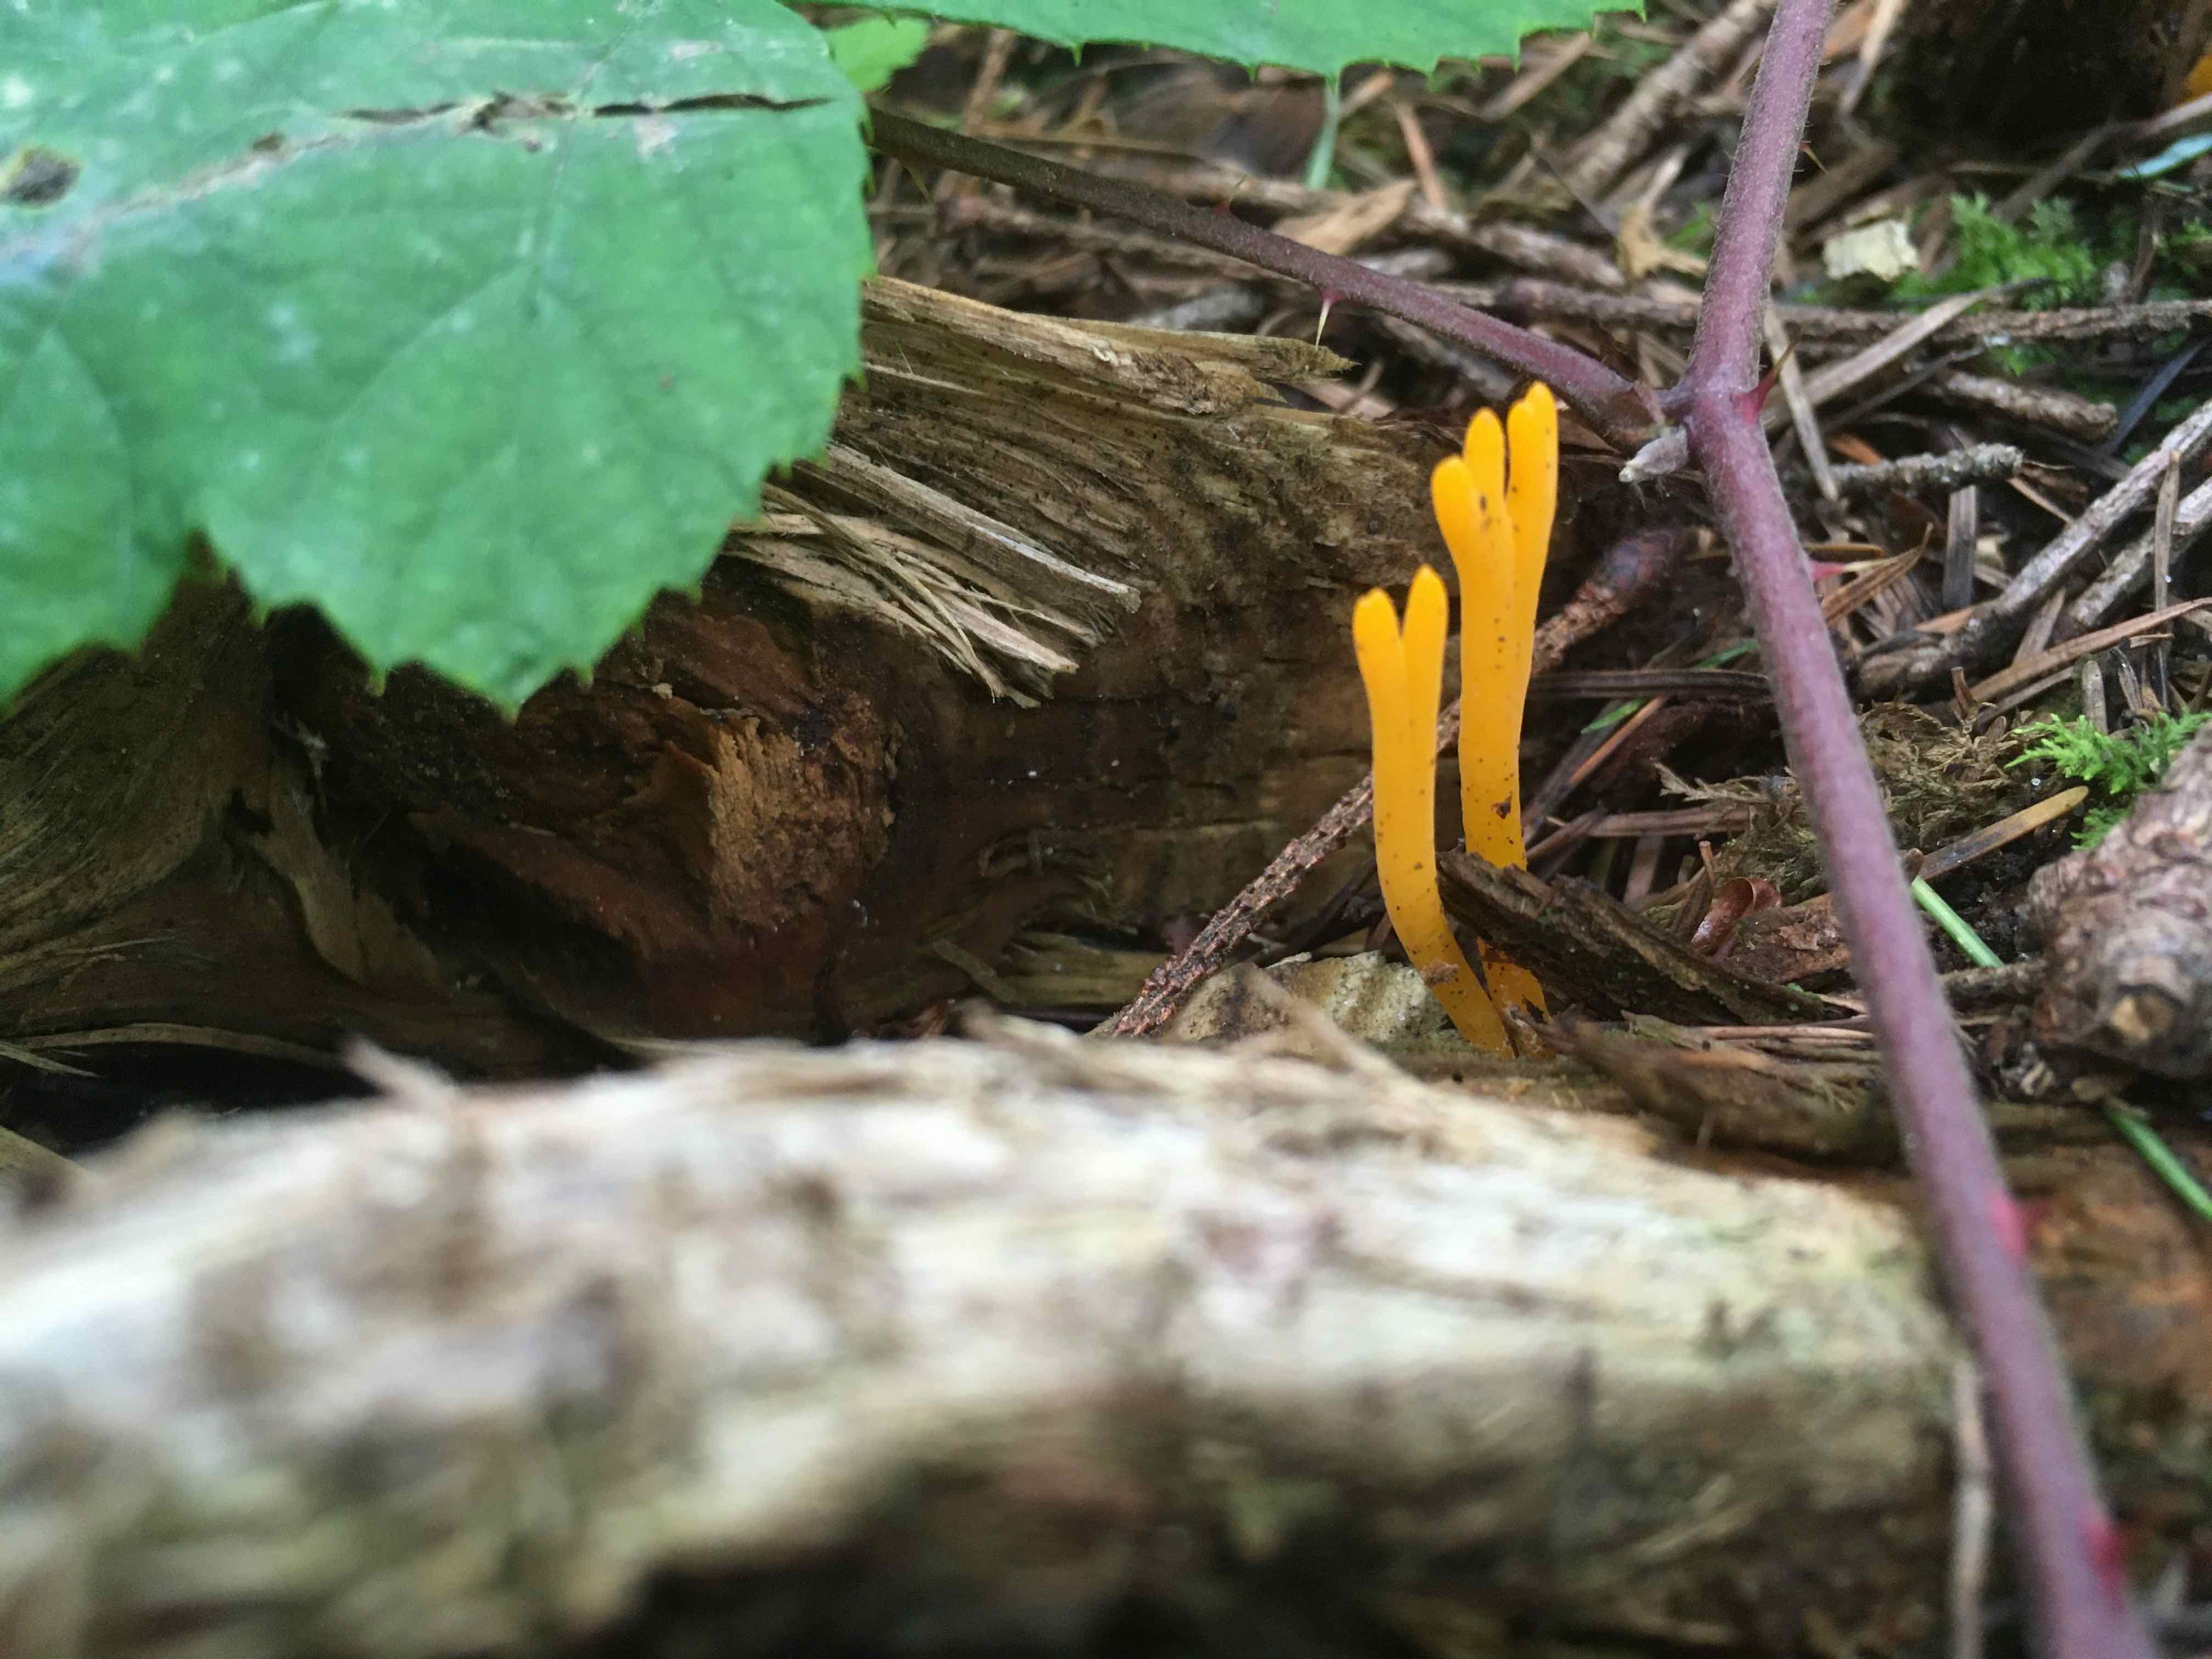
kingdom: Fungi
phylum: Basidiomycota
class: Dacrymycetes
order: Dacrymycetales
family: Dacrymycetaceae
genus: Calocera
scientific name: Calocera viscosa
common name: almindelig guldgaffel
